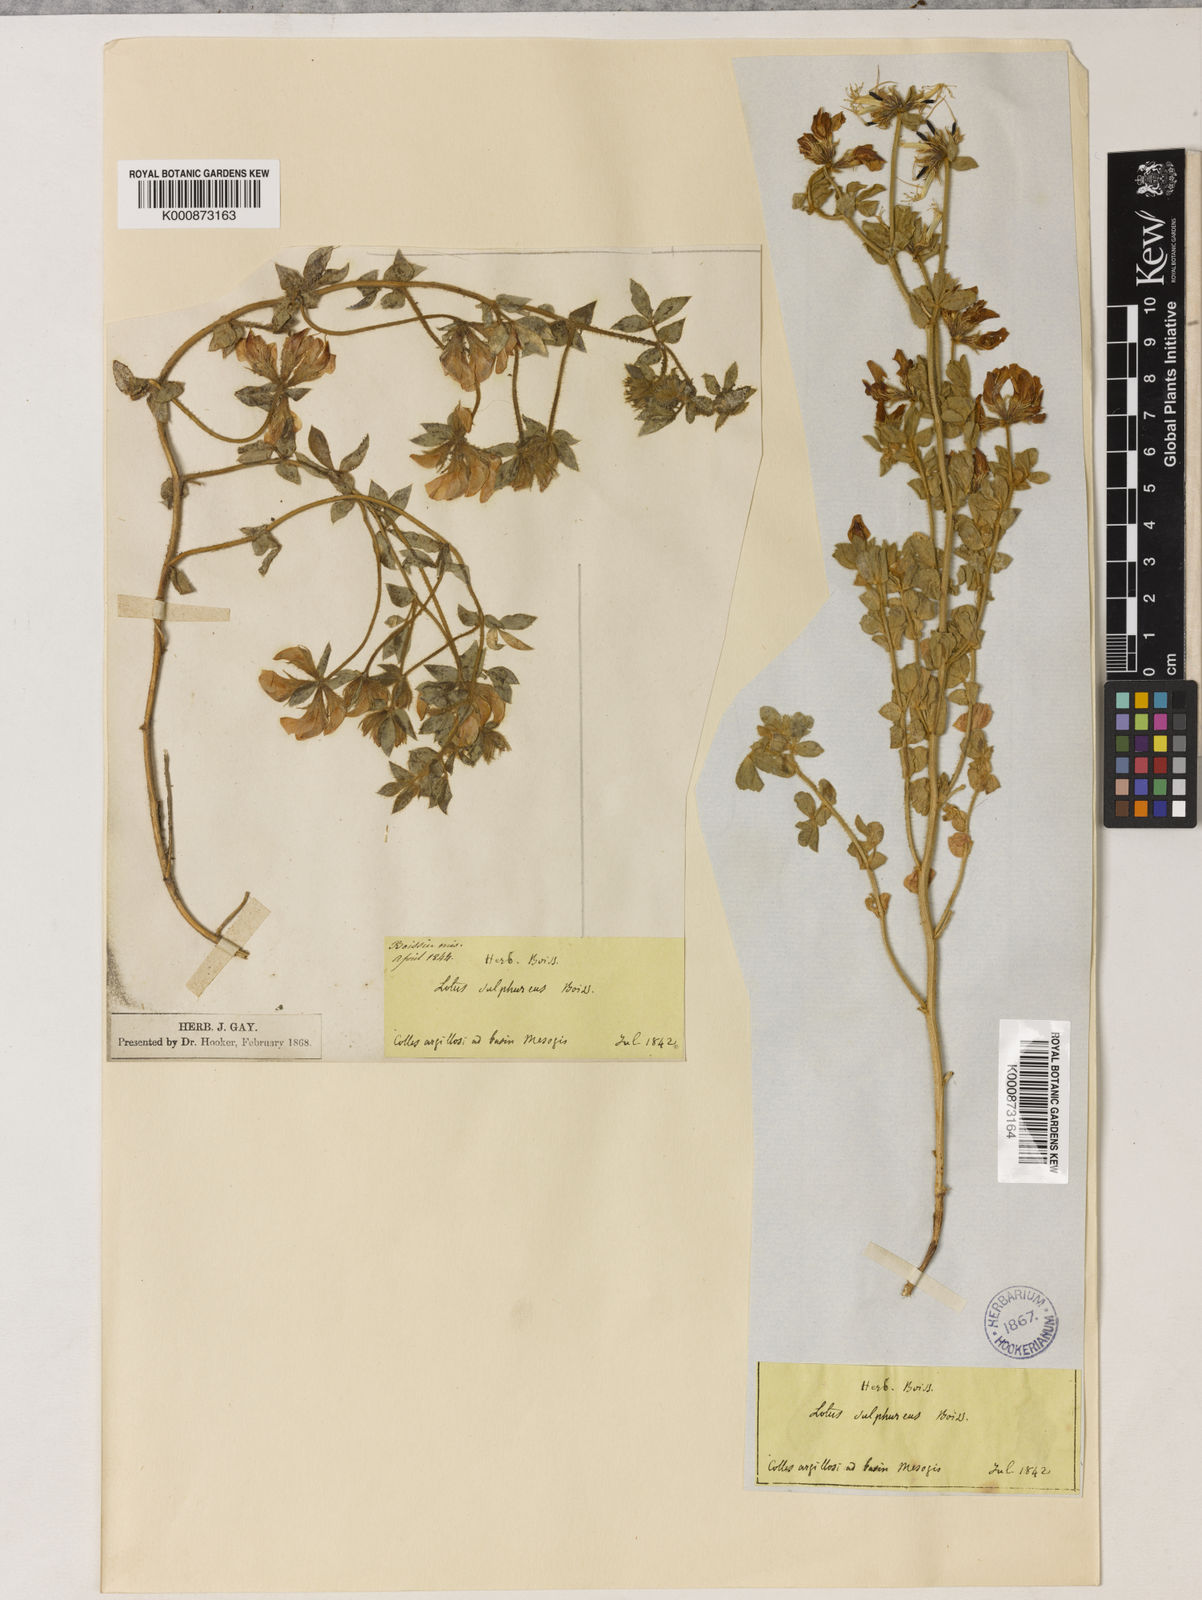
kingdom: Plantae
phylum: Tracheophyta
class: Magnoliopsida
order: Fabales
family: Fabaceae
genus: Lotus
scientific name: Lotus
